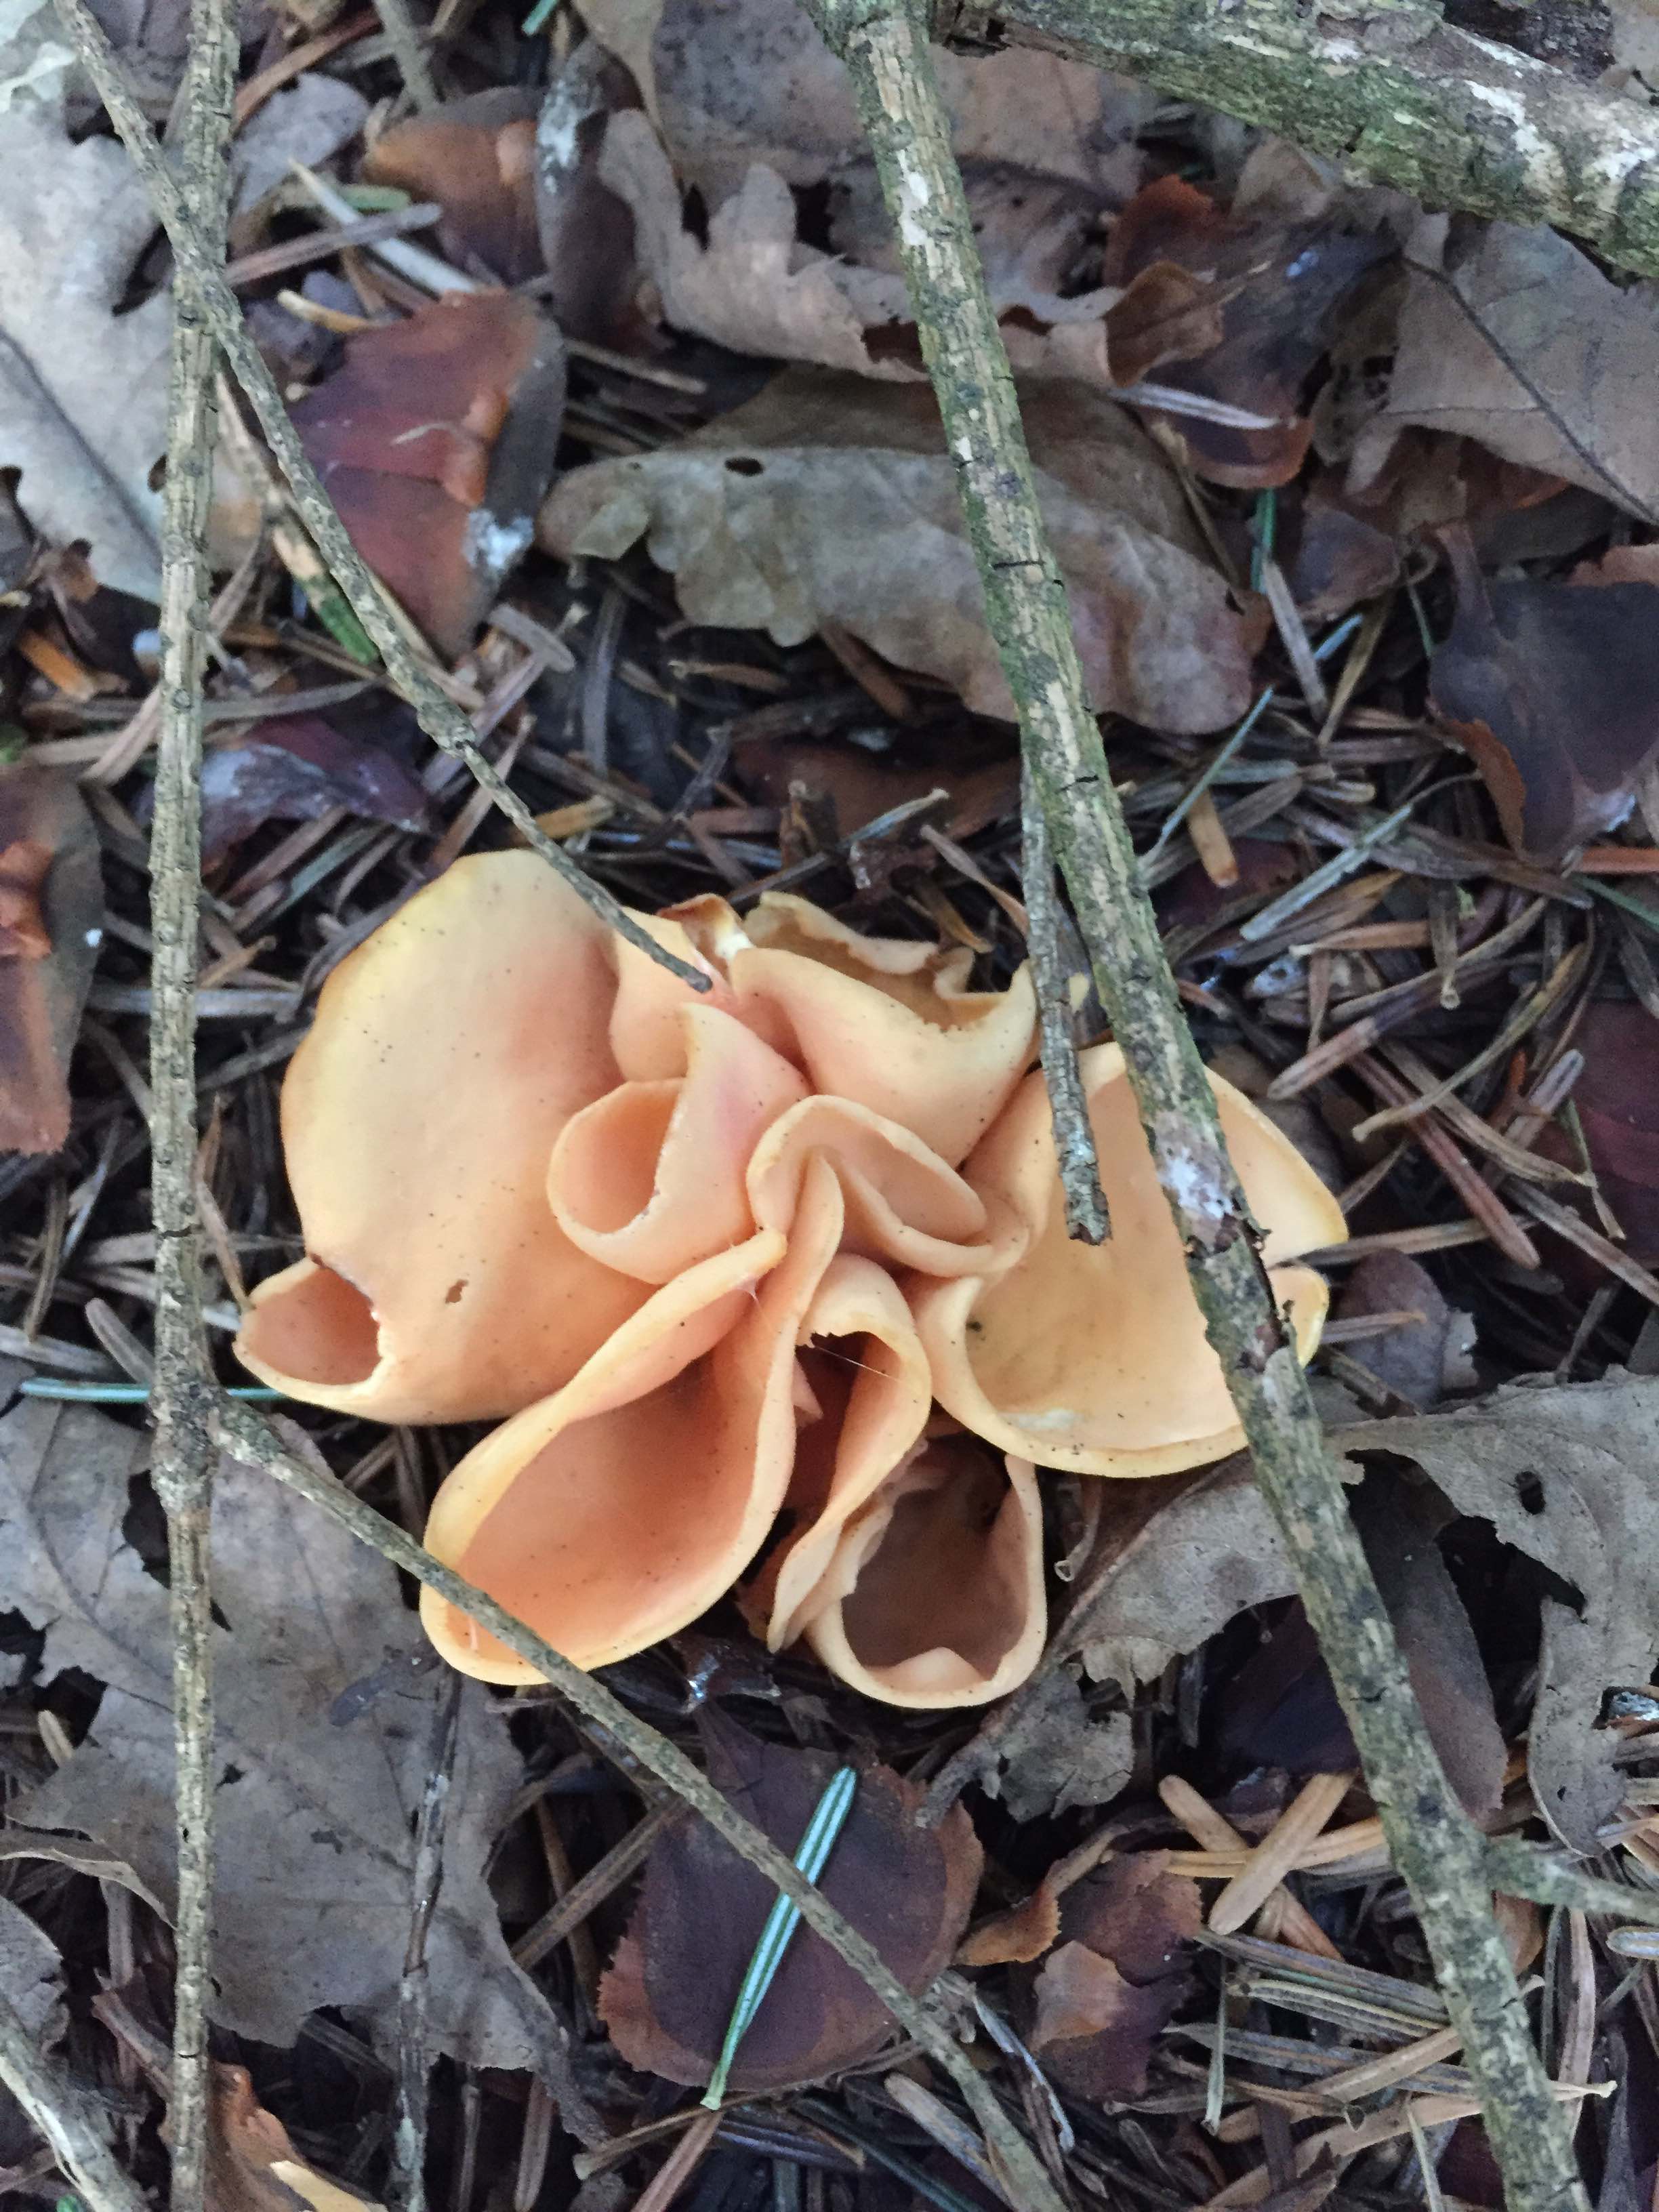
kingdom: Fungi
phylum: Ascomycota
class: Pezizomycetes
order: Pezizales
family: Otideaceae
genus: Otidea
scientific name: Otidea onotica
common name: æsel-ørebæger
